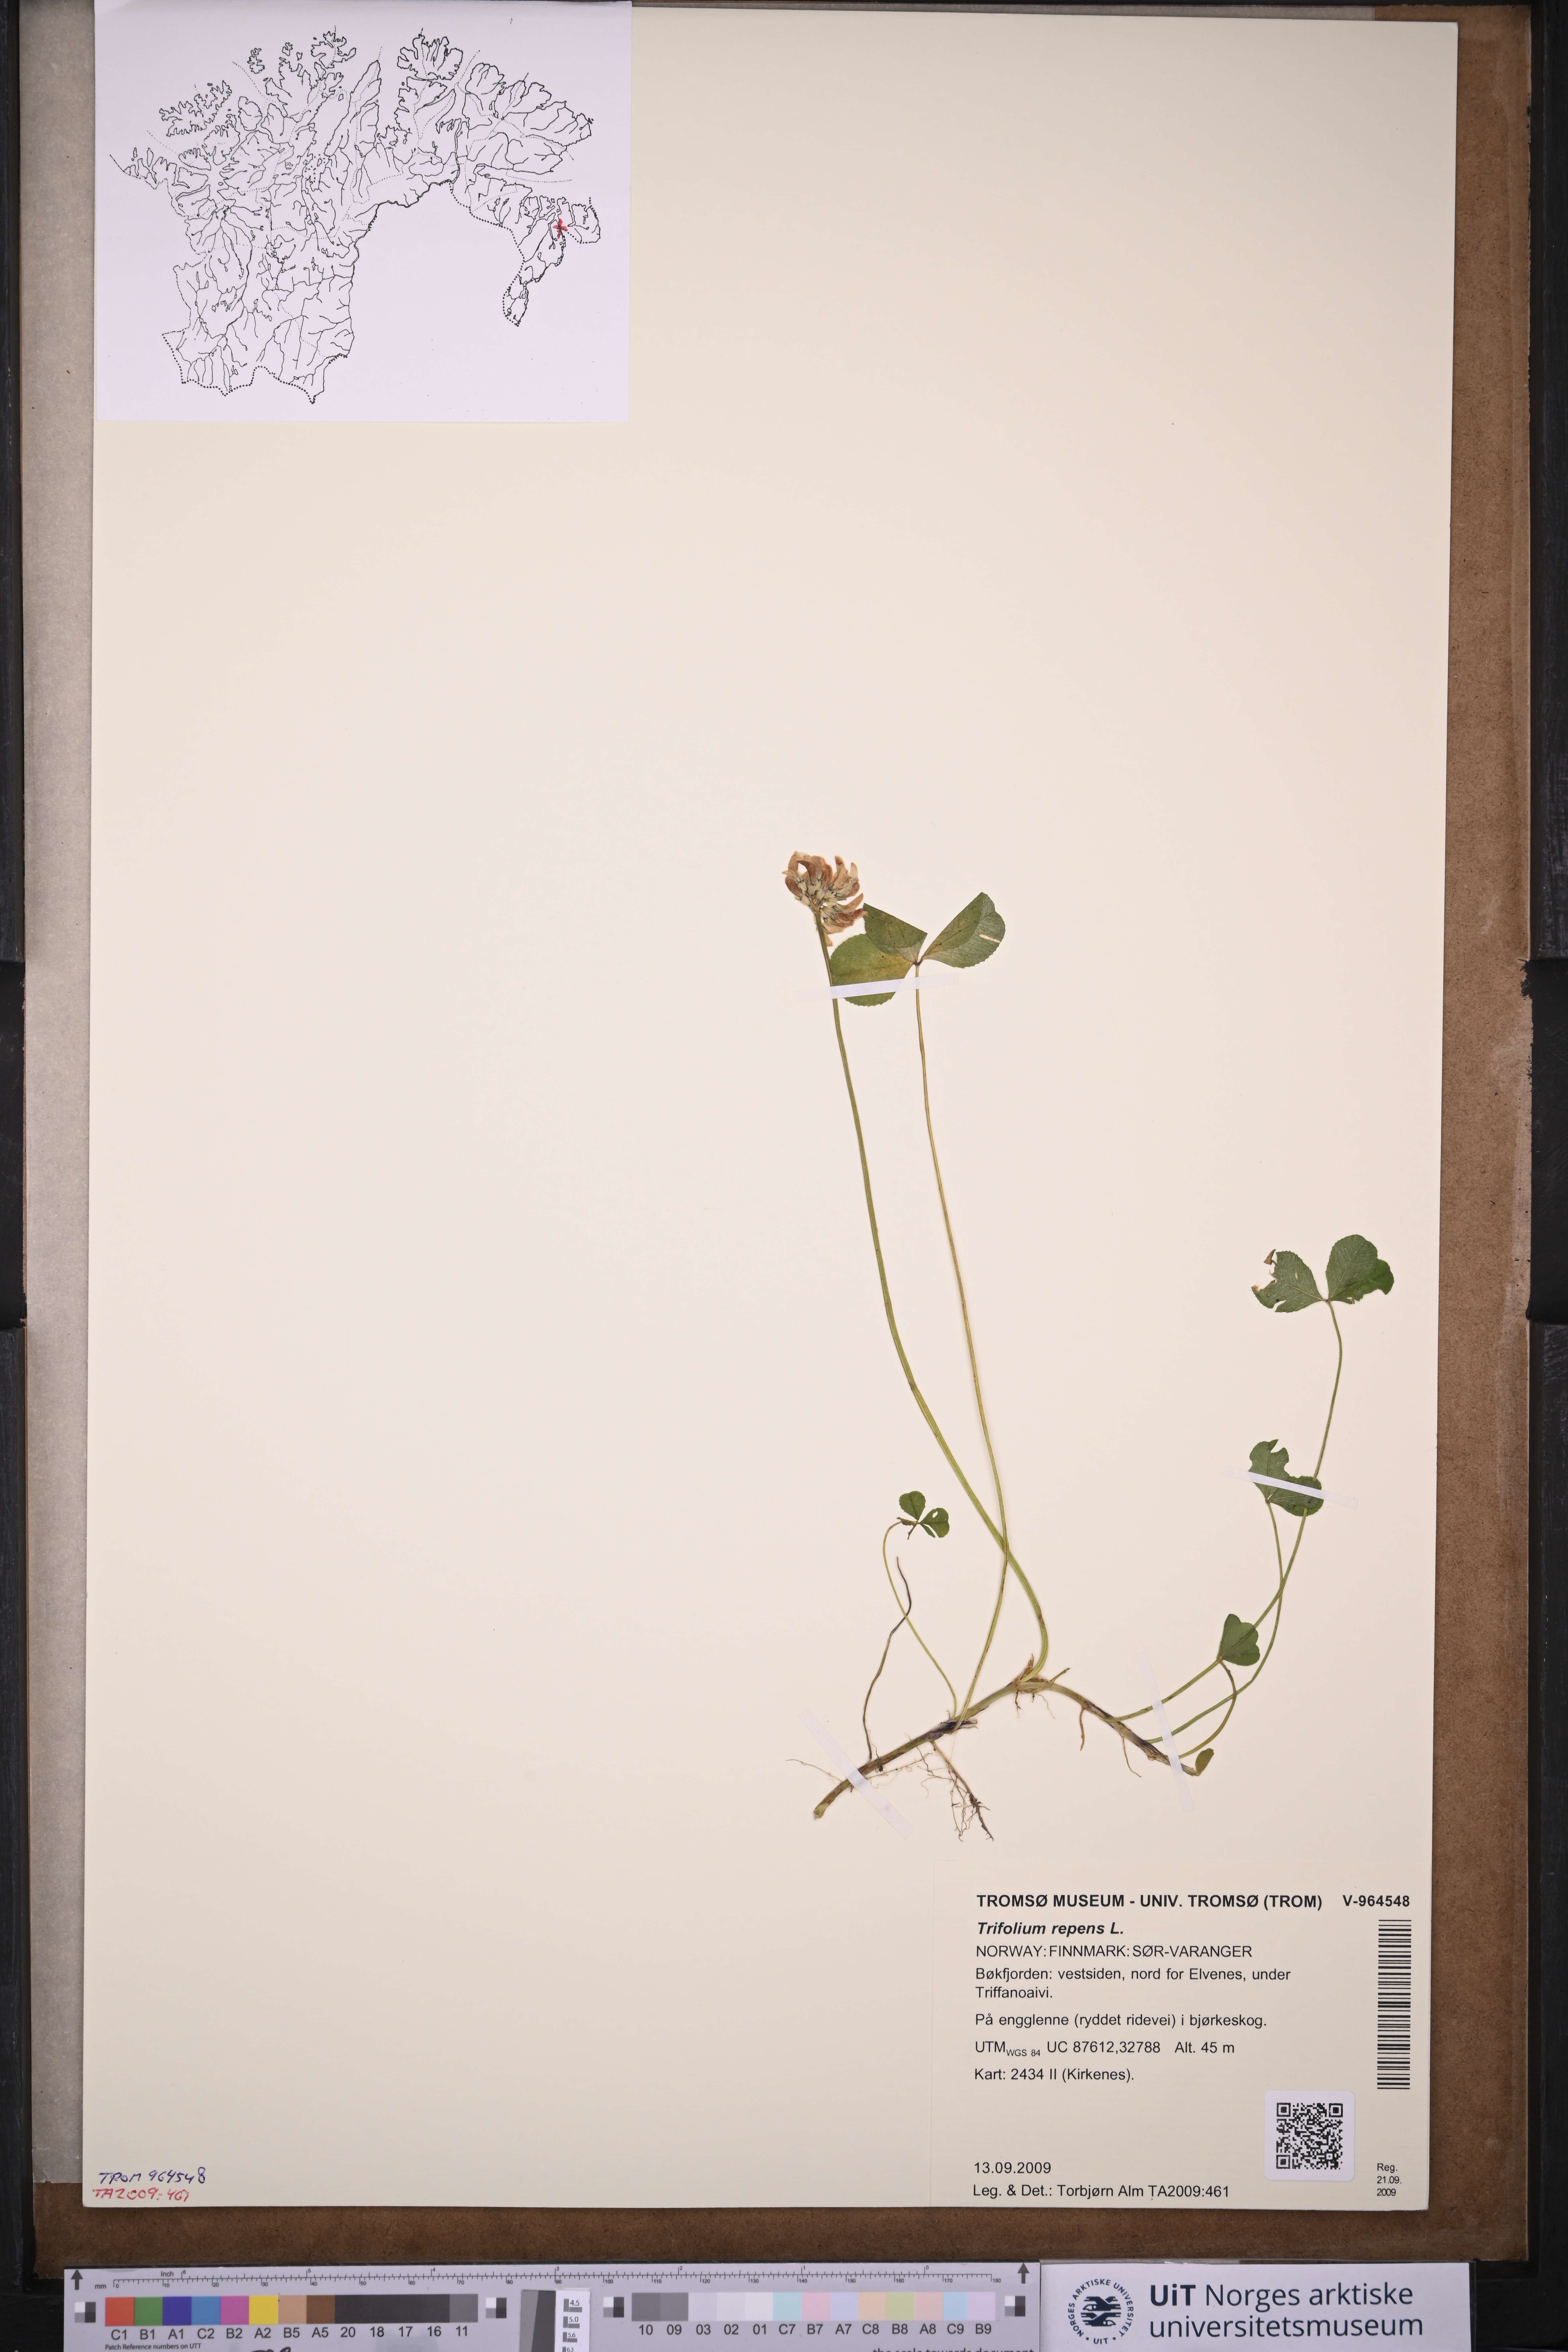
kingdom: Plantae
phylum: Tracheophyta
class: Magnoliopsida
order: Fabales
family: Fabaceae
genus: Trifolium
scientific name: Trifolium repens
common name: White clover
